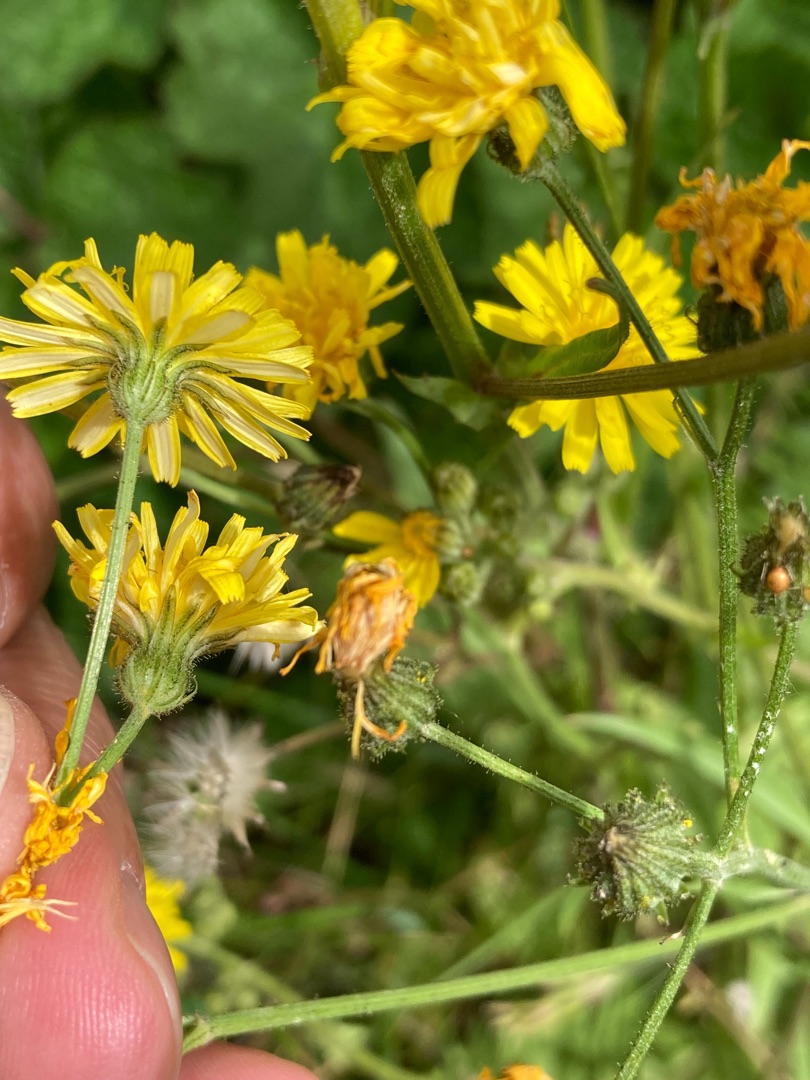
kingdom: Plantae
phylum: Tracheophyta
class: Magnoliopsida
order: Asterales
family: Asteraceae
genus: Crepis
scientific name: Crepis capillaris
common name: Grøn høgeskæg
